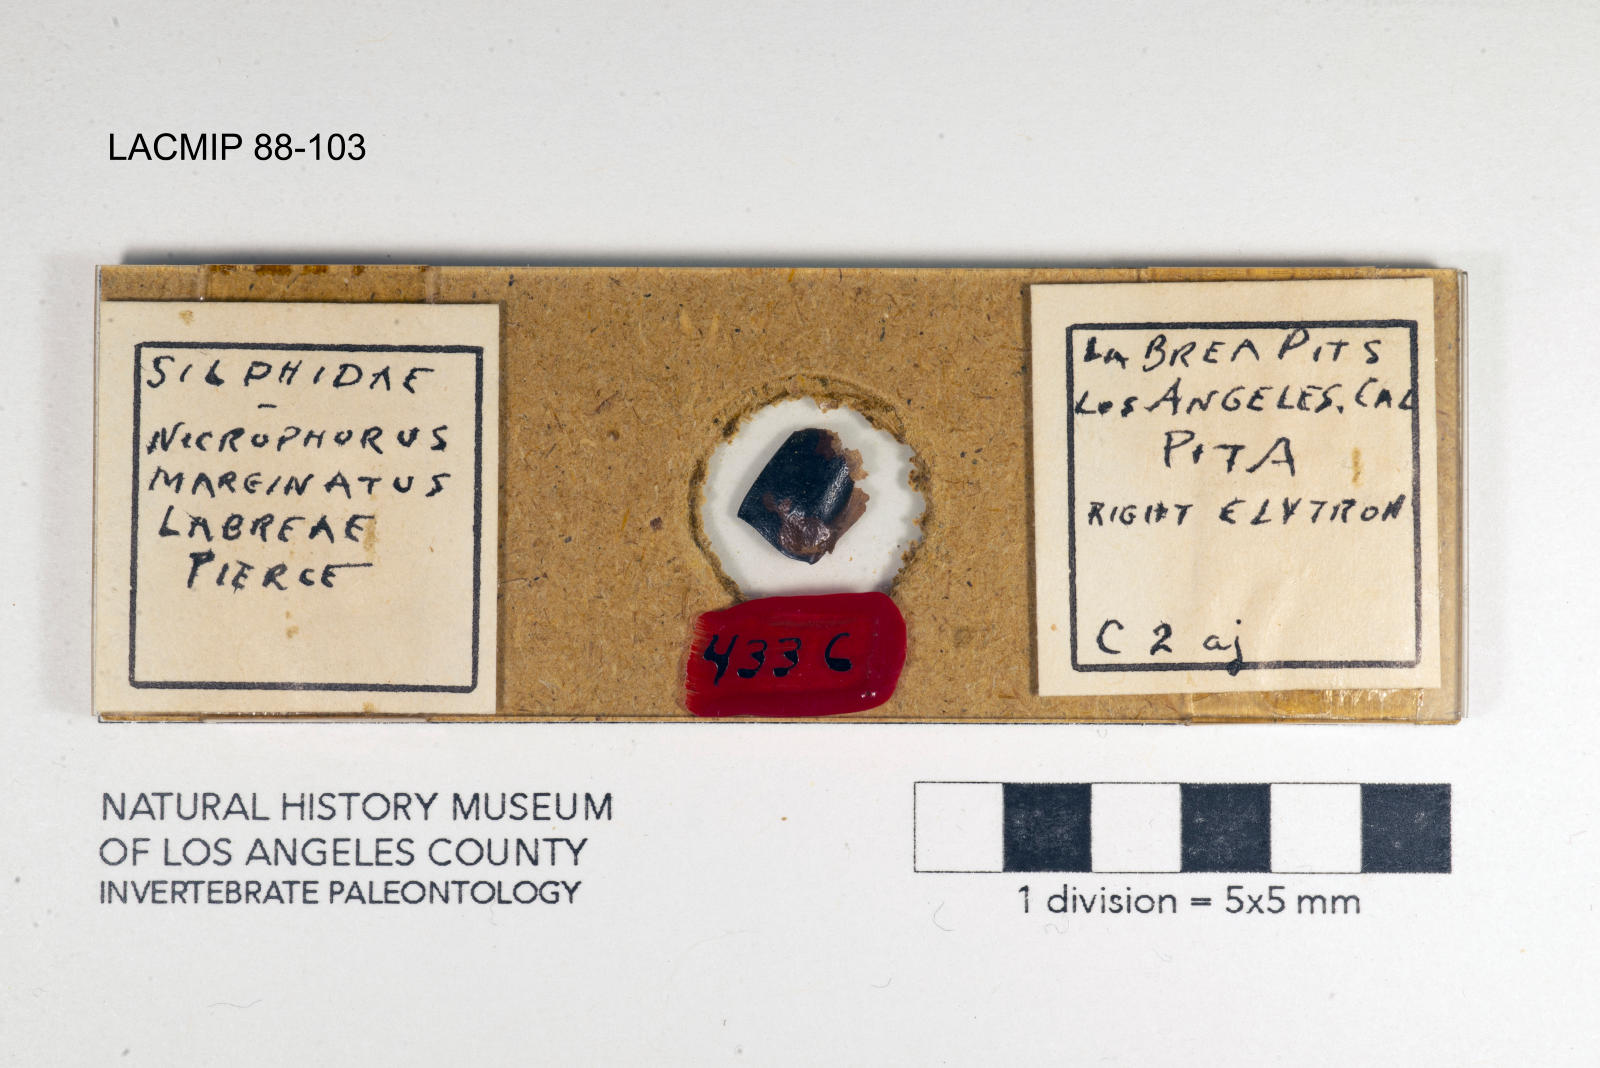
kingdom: Animalia
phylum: Arthropoda
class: Insecta
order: Coleoptera
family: Staphylinidae
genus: Nicrophorus
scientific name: Nicrophorus marginatus
